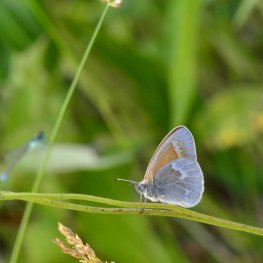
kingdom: Animalia
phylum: Arthropoda
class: Insecta
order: Lepidoptera
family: Nymphalidae
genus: Coenonympha
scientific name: Coenonympha tullia
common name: Large Heath
